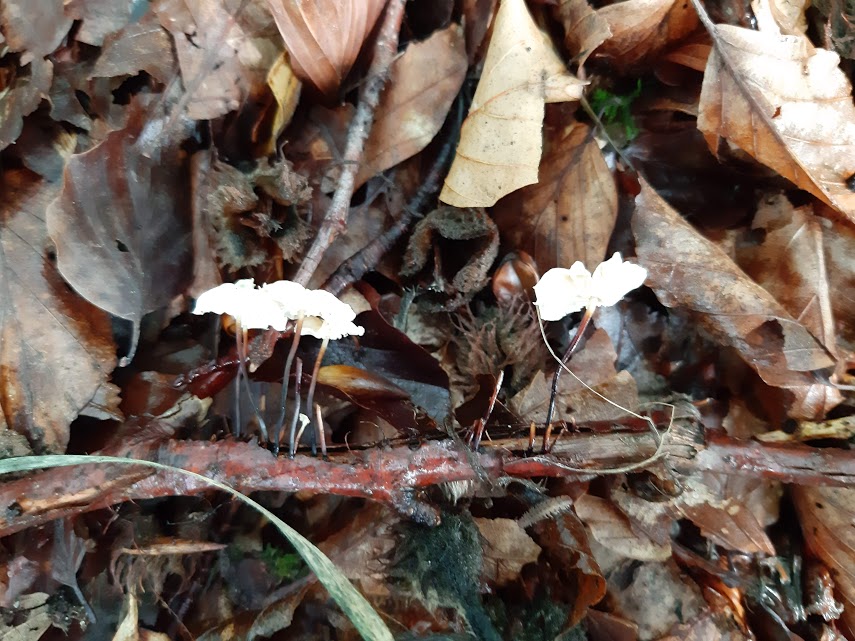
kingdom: Fungi
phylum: Basidiomycota
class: Agaricomycetes
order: Agaricales
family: Marasmiaceae
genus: Marasmius
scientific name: Marasmius rotula
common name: hjul-bruskhat
